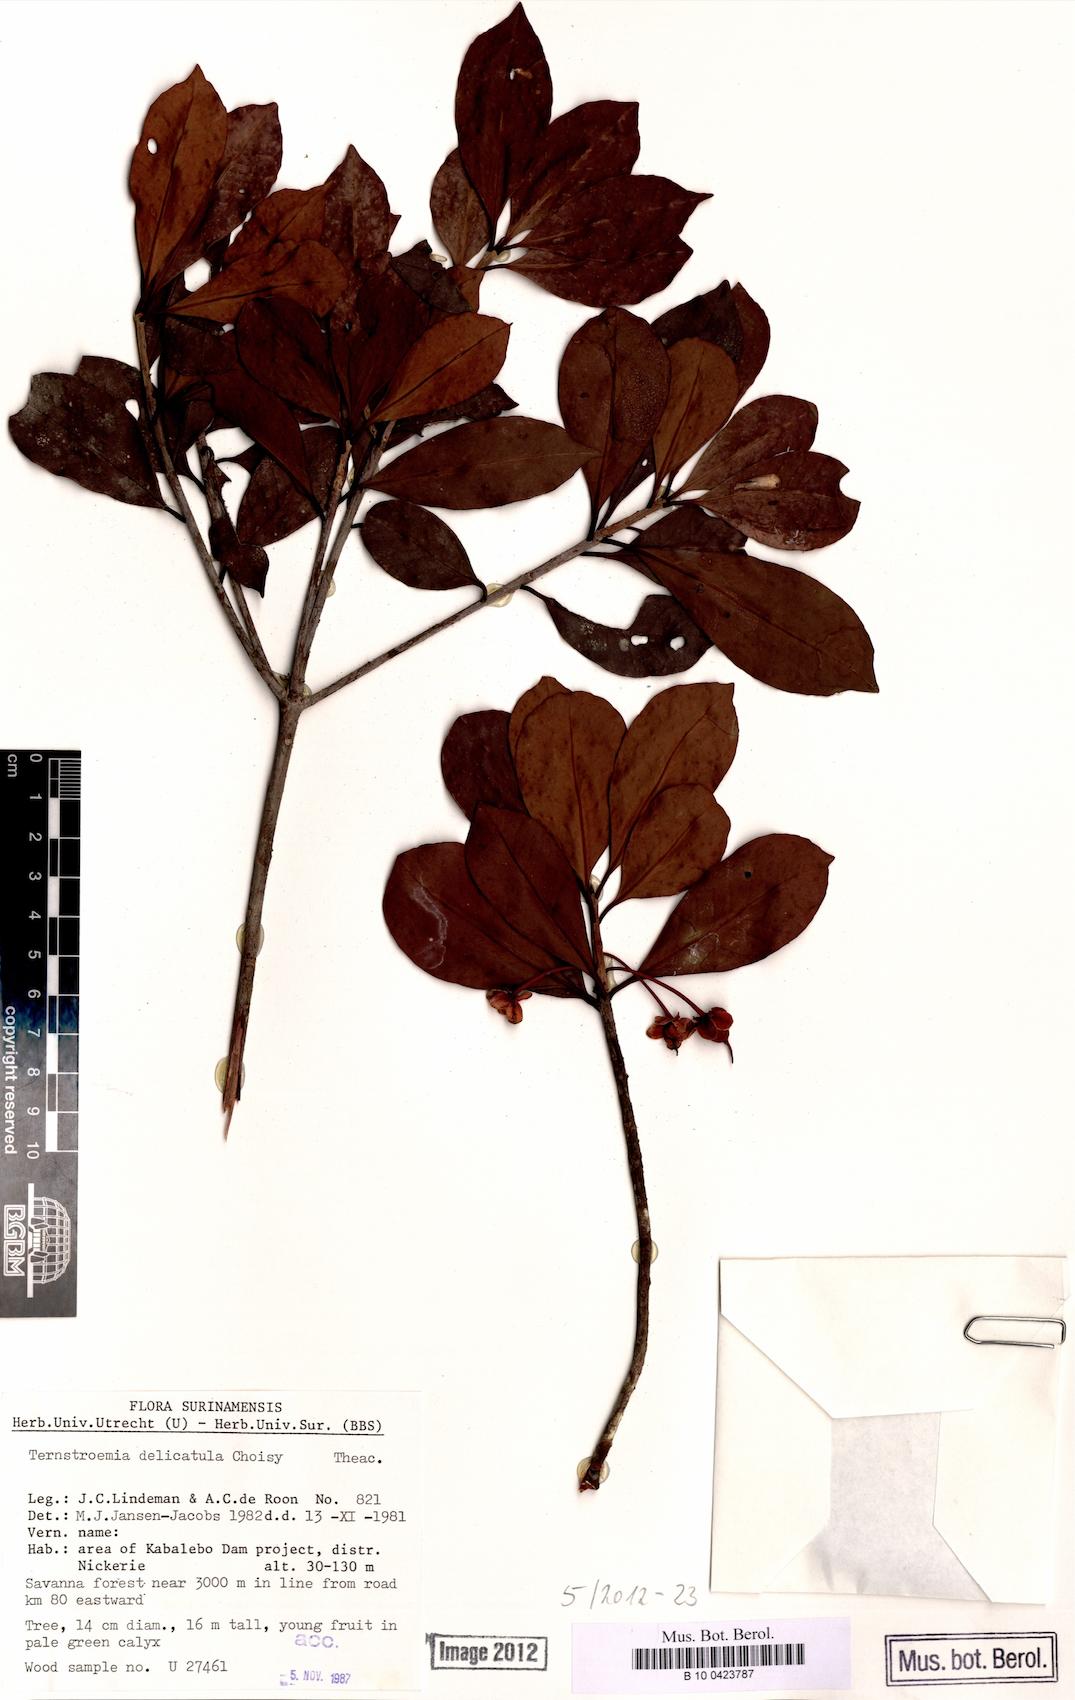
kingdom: Plantae
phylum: Tracheophyta
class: Magnoliopsida
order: Ericales
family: Pentaphylacaceae
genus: Ternstroemia
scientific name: Ternstroemia delicatula
